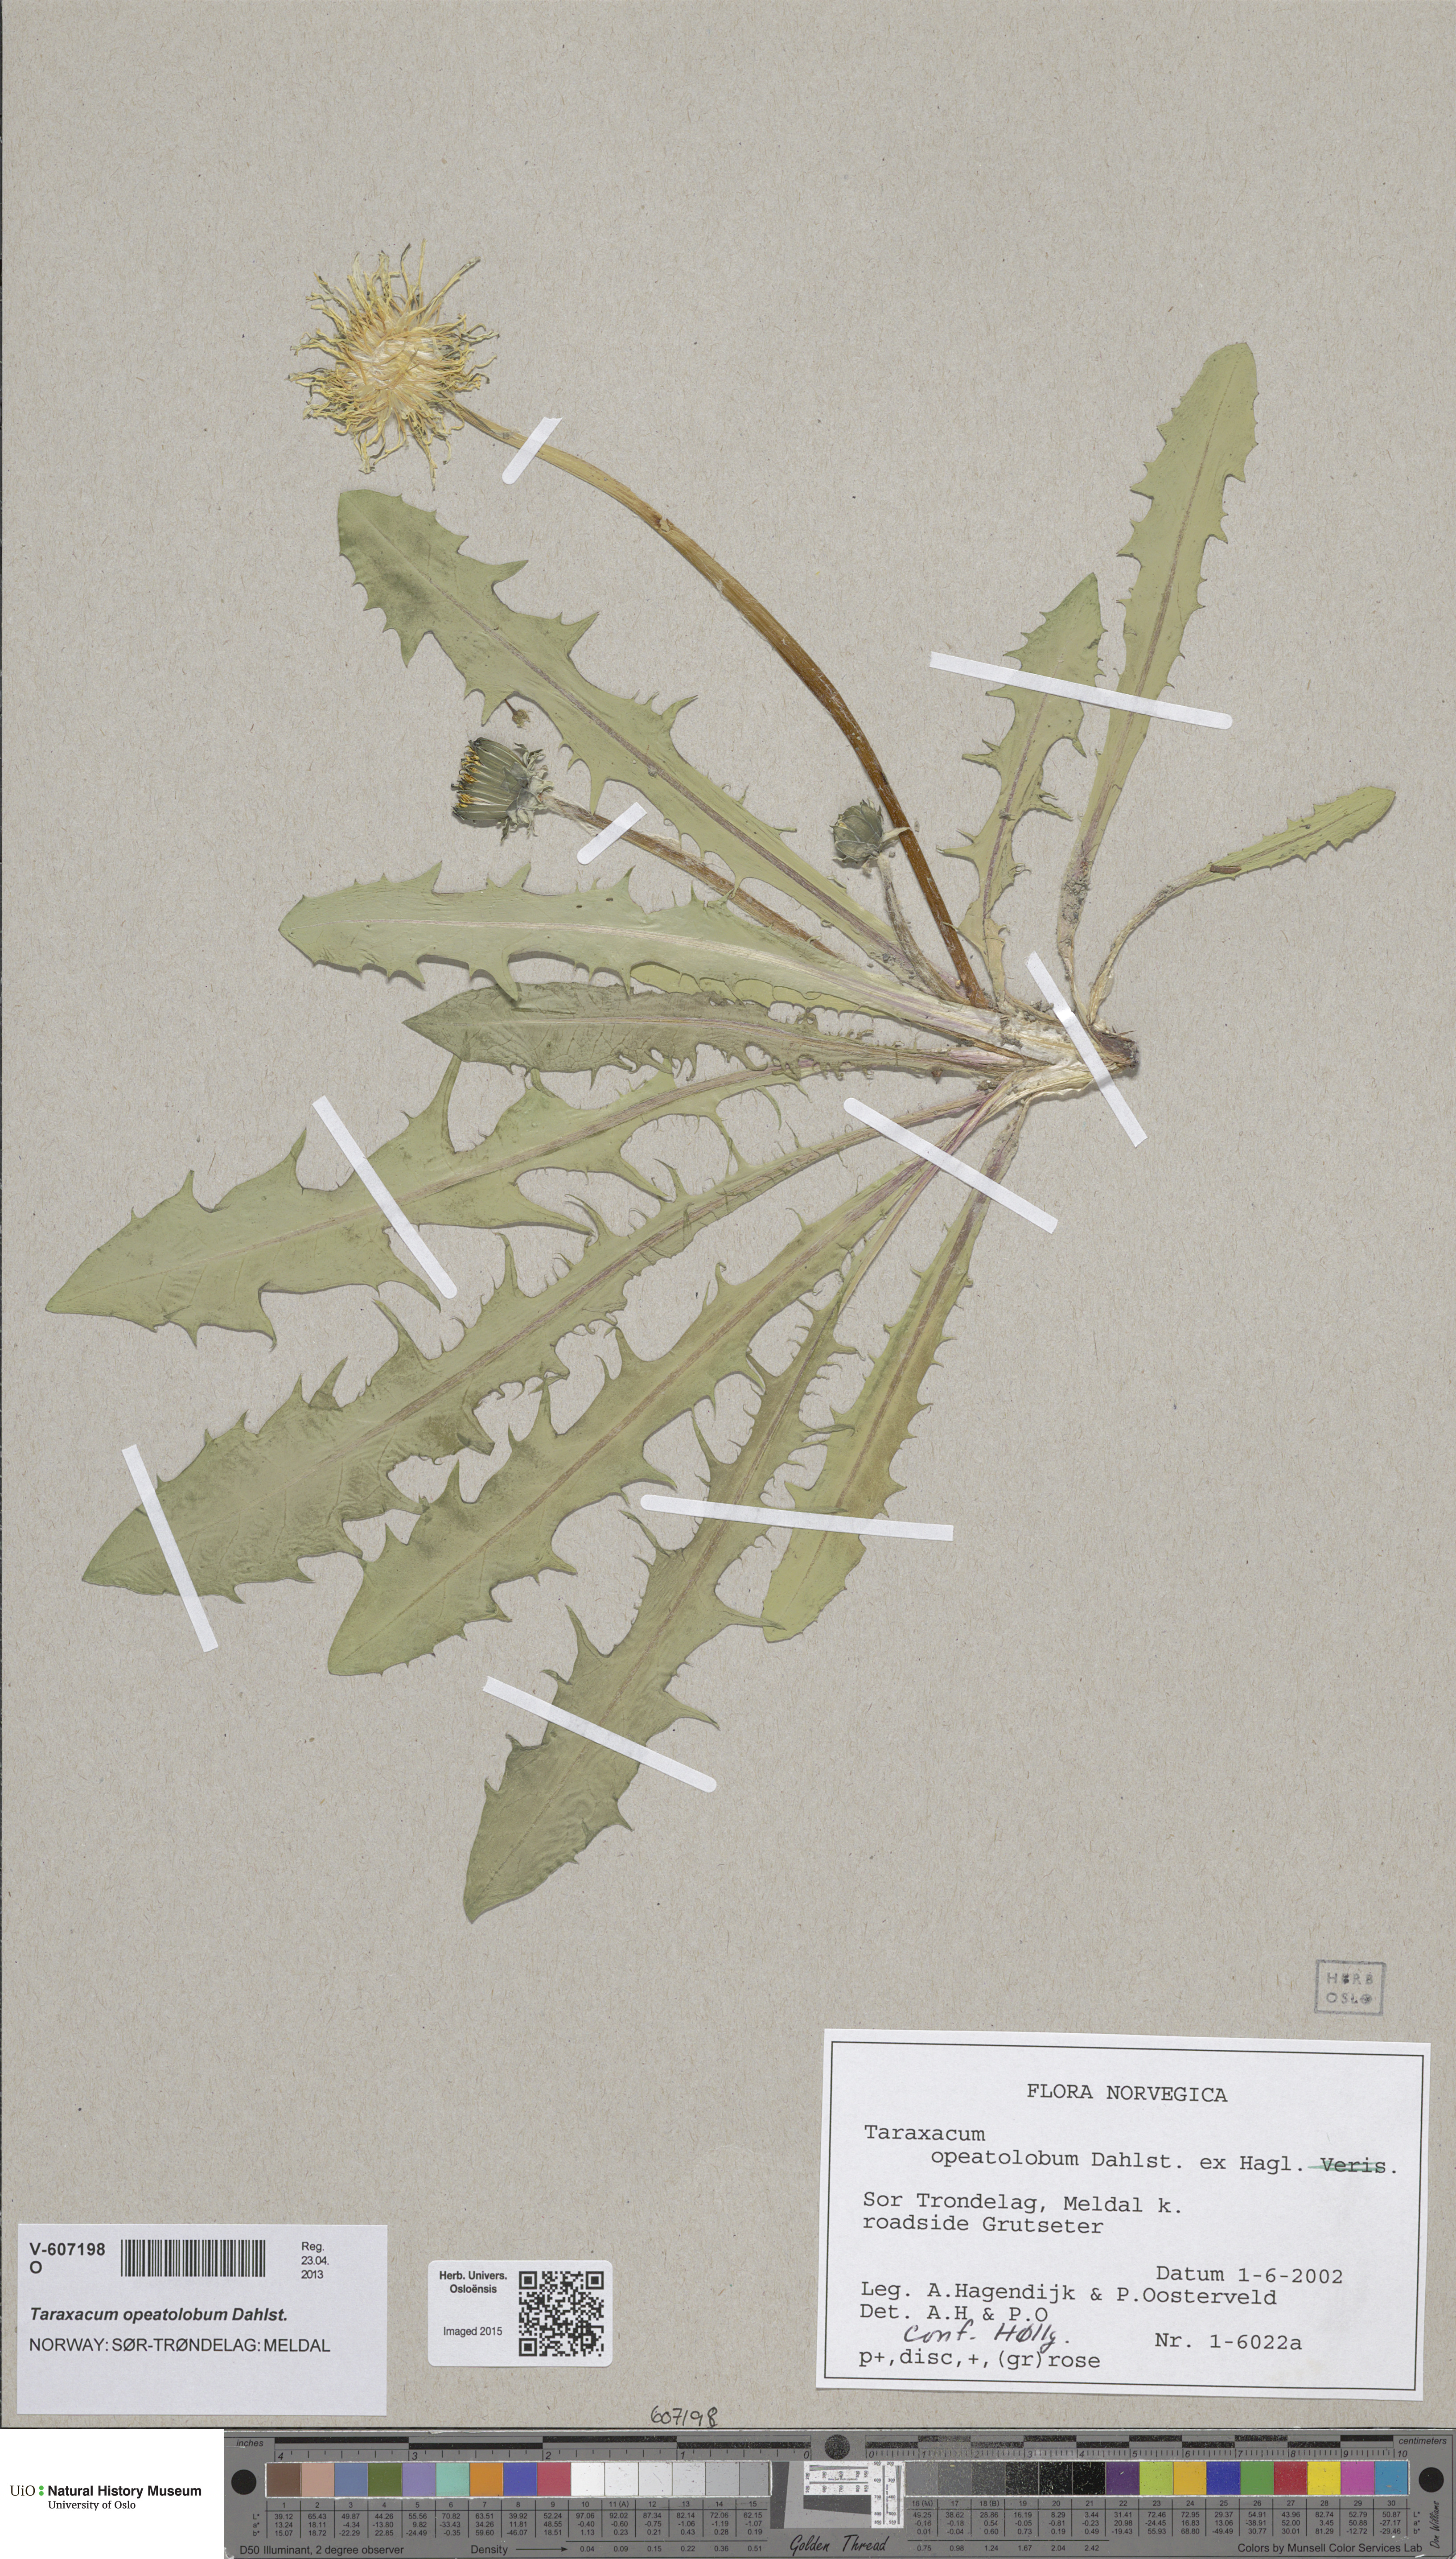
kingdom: Plantae
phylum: Tracheophyta
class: Magnoliopsida
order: Asterales
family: Asteraceae
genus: Taraxacum
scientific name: Taraxacum opeatolobum
